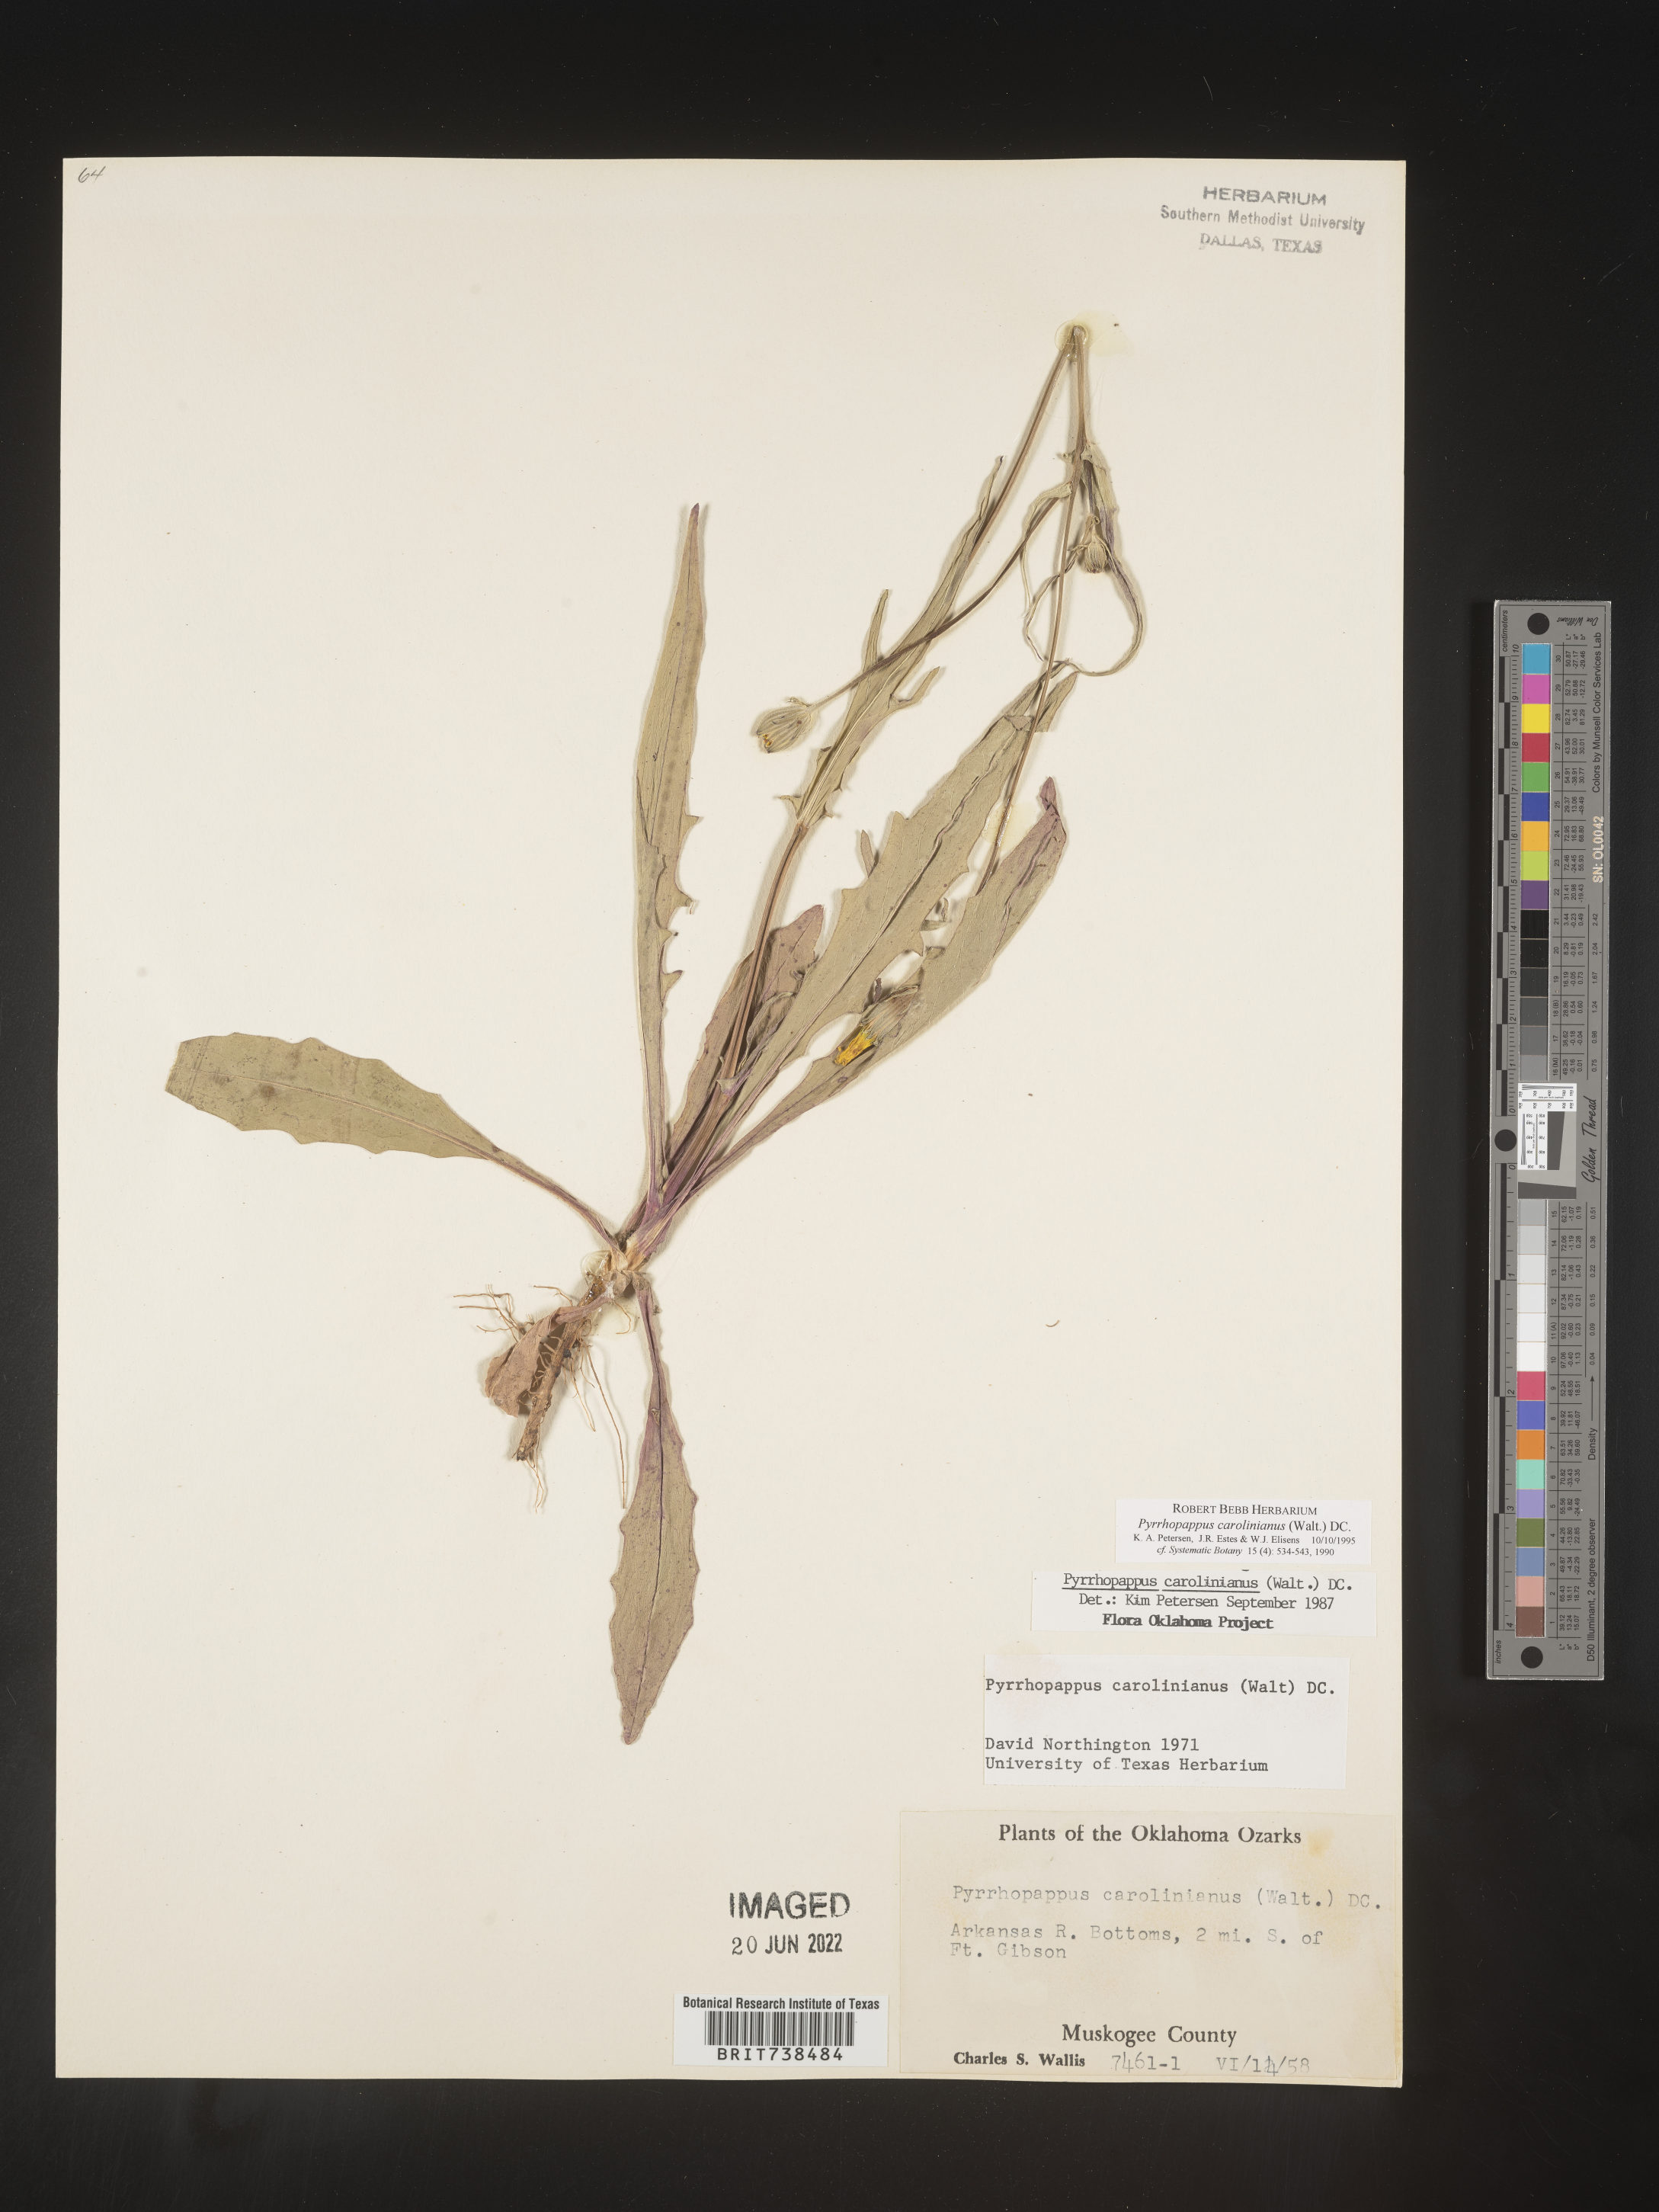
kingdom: Plantae
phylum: Tracheophyta
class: Magnoliopsida
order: Asterales
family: Asteraceae
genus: Pyrrhopappus
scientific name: Pyrrhopappus carolinianus
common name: Carolina desert-chicory
